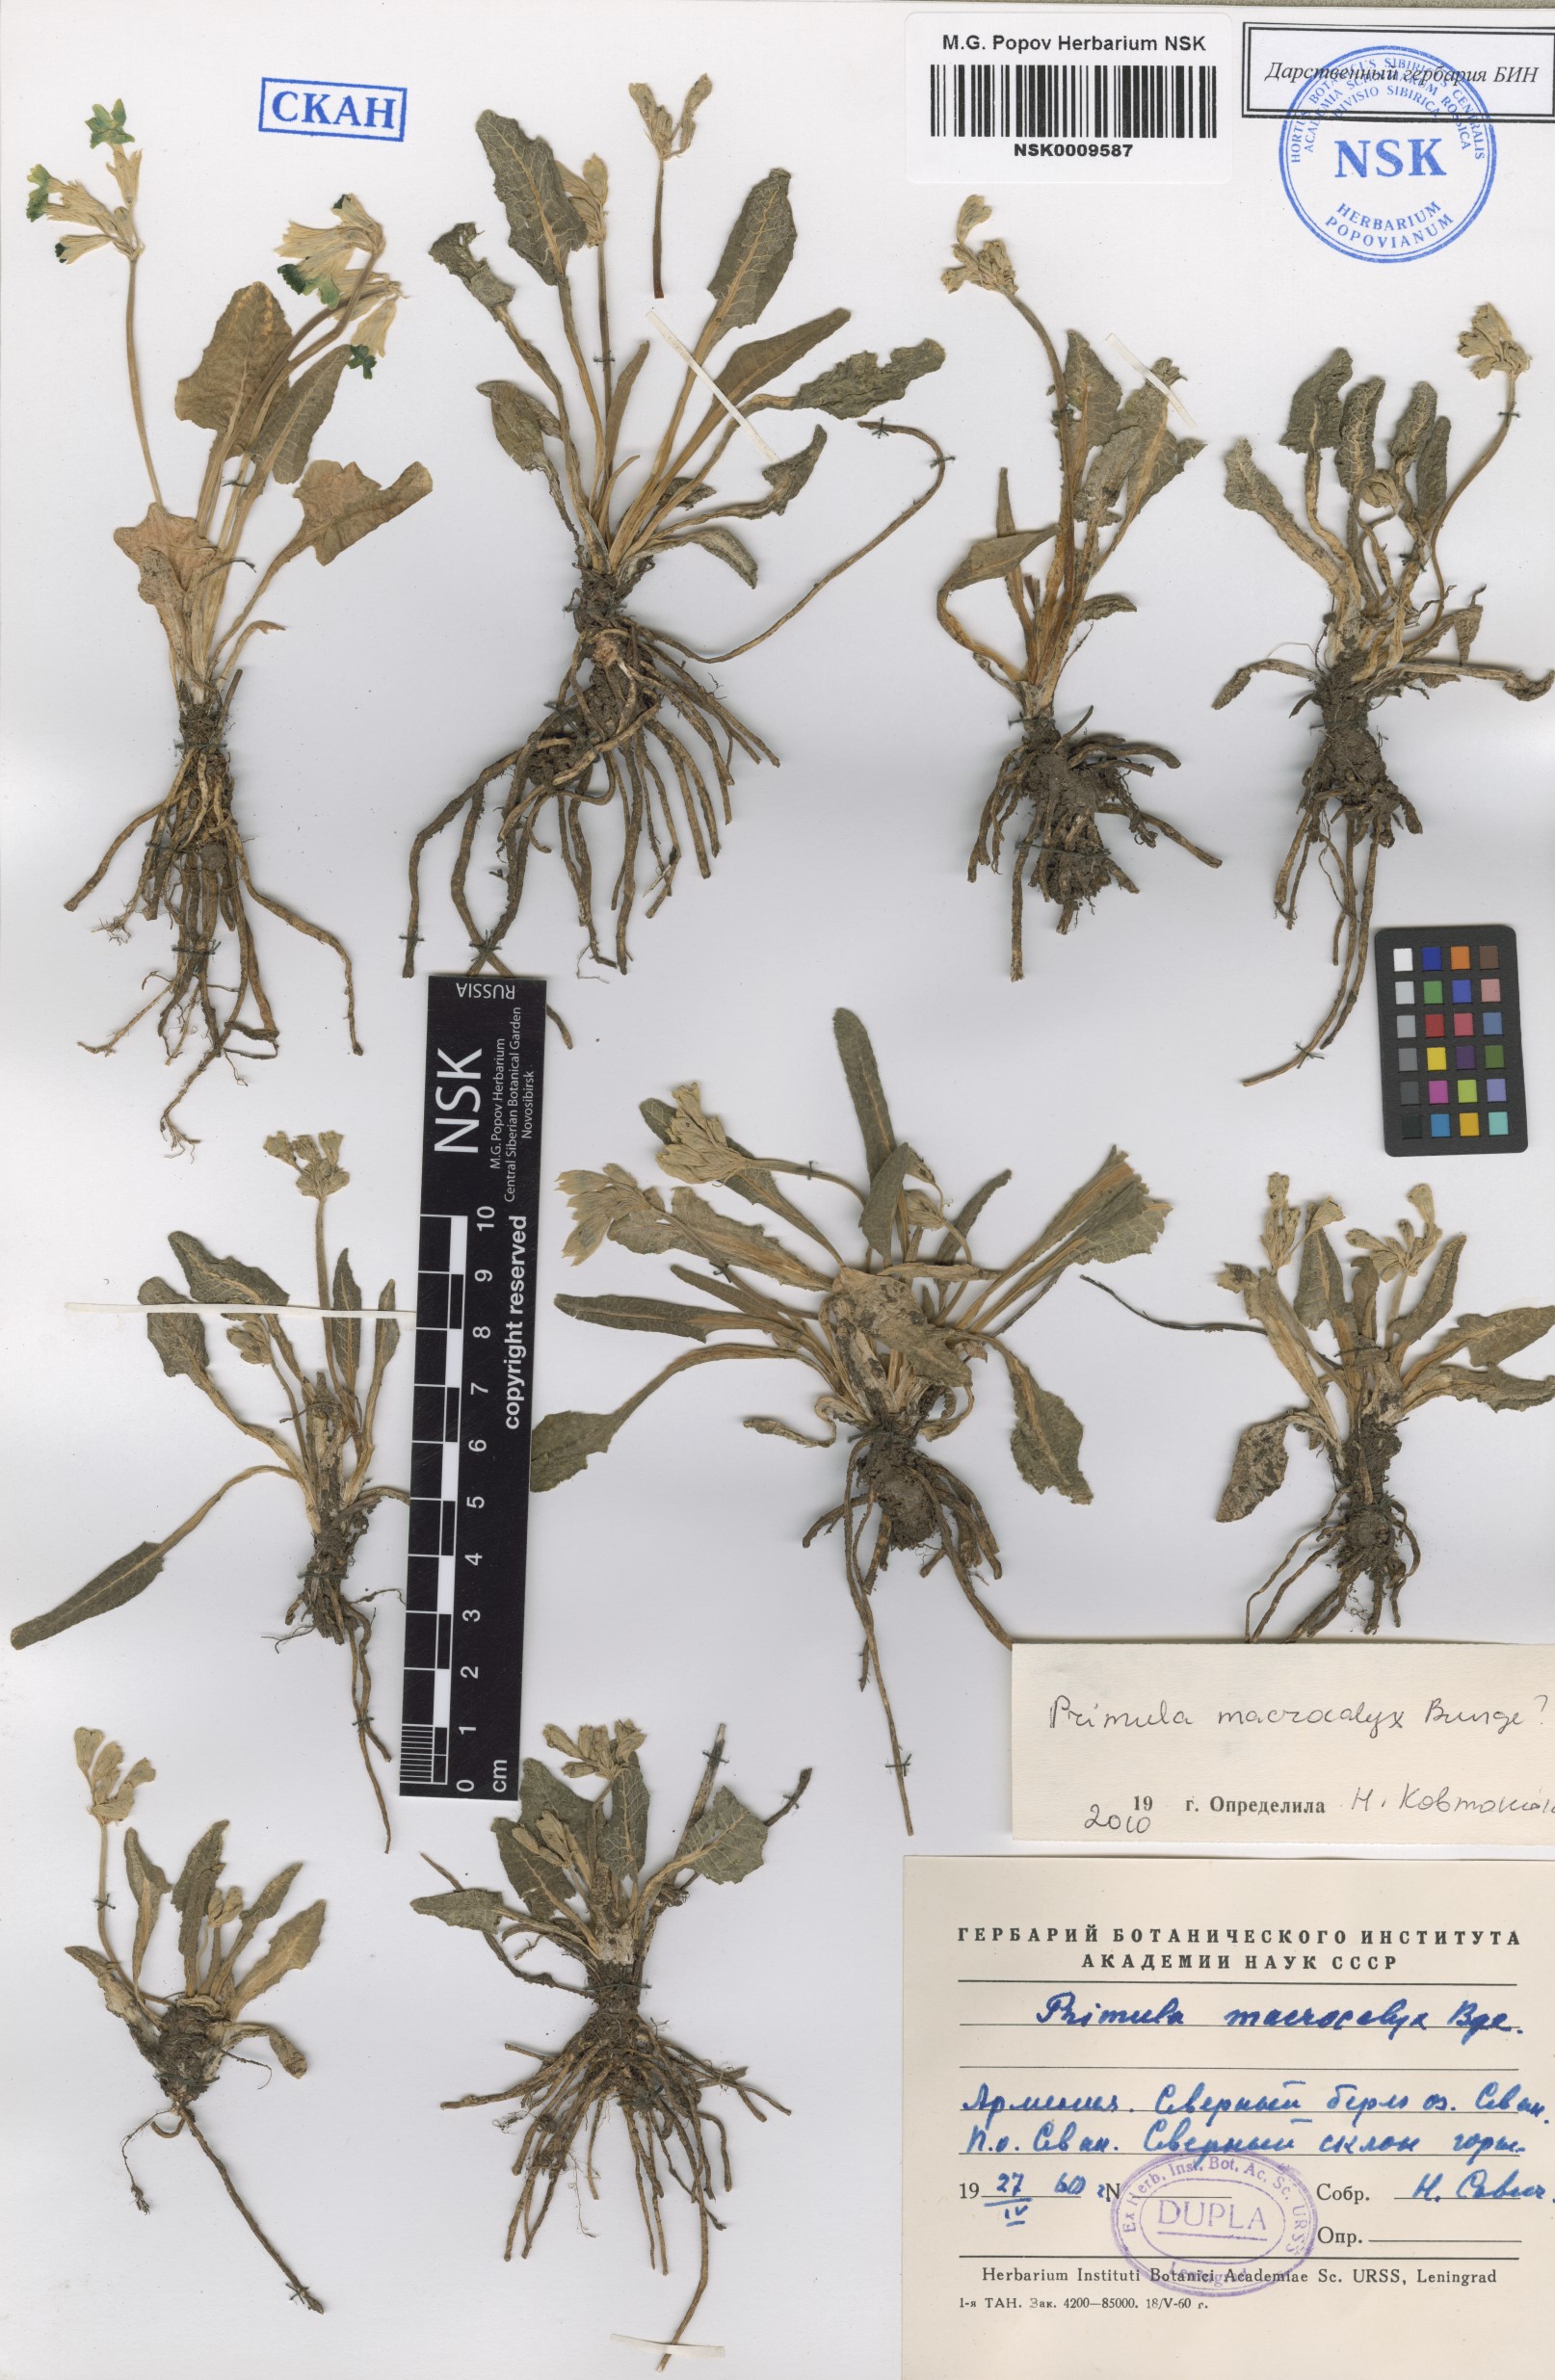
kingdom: Plantae
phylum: Tracheophyta
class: Magnoliopsida
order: Ericales
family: Primulaceae
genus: Primula
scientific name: Primula veris
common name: Cowslip
